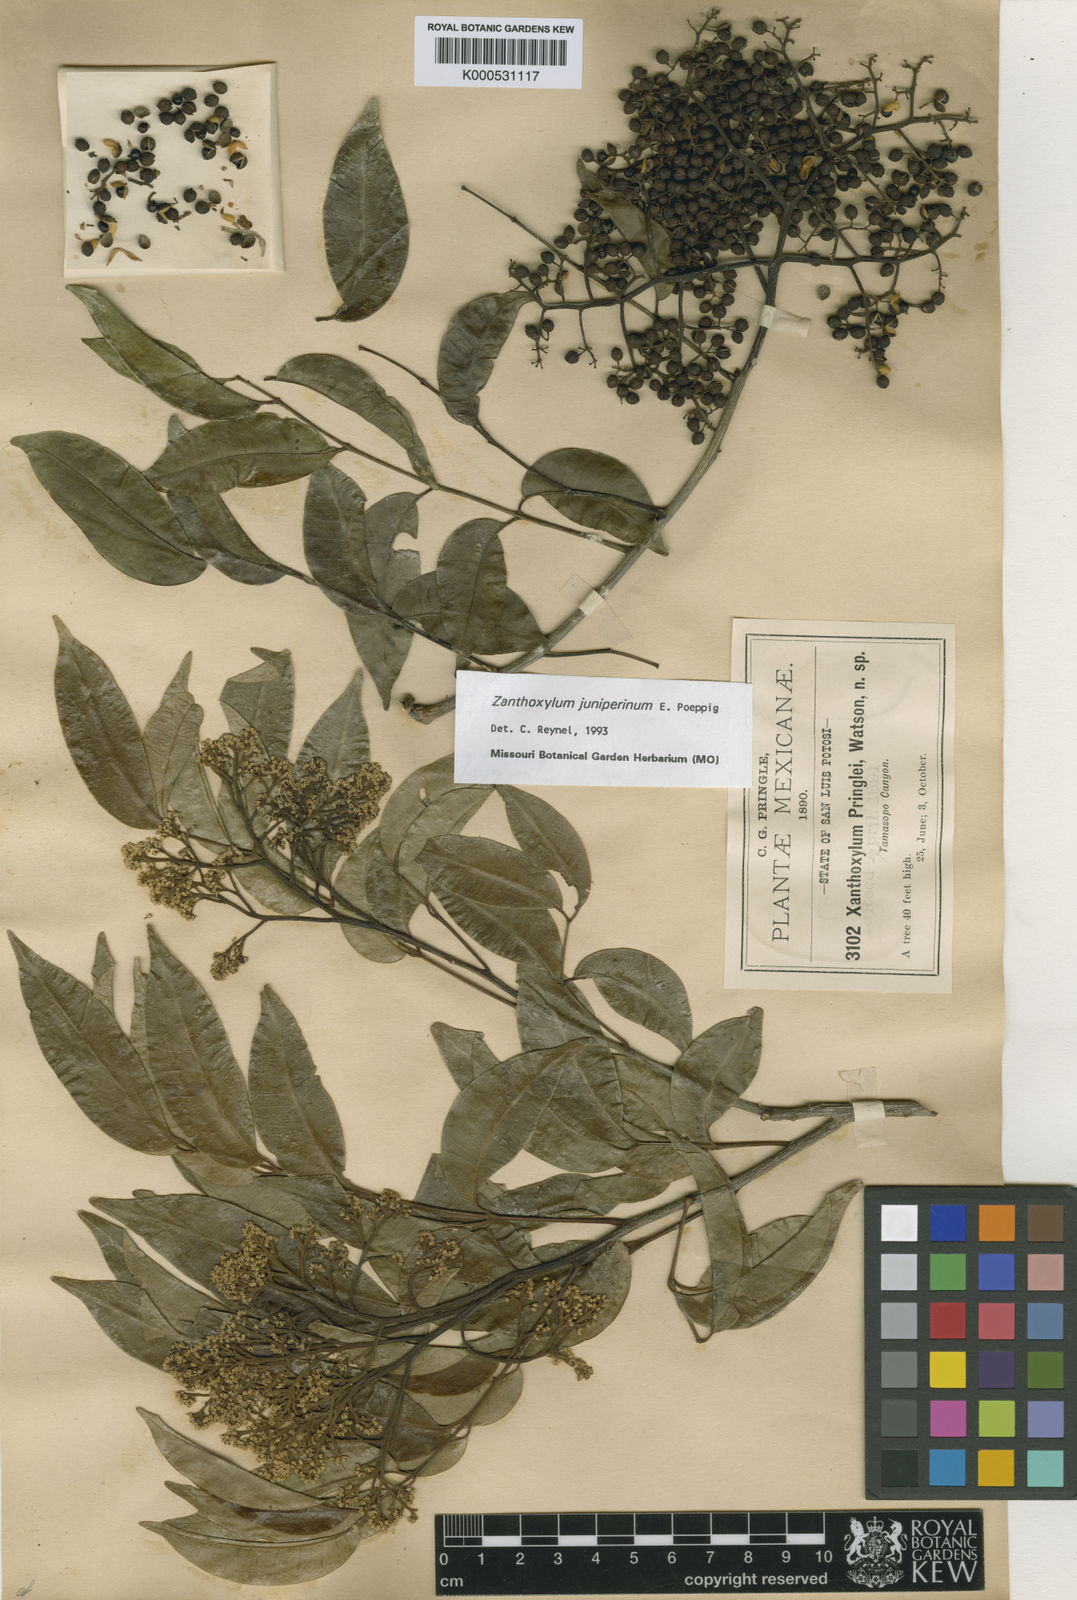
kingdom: Plantae
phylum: Tracheophyta
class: Magnoliopsida
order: Sapindales
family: Rutaceae
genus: Zanthoxylum
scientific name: Zanthoxylum acuminatum
